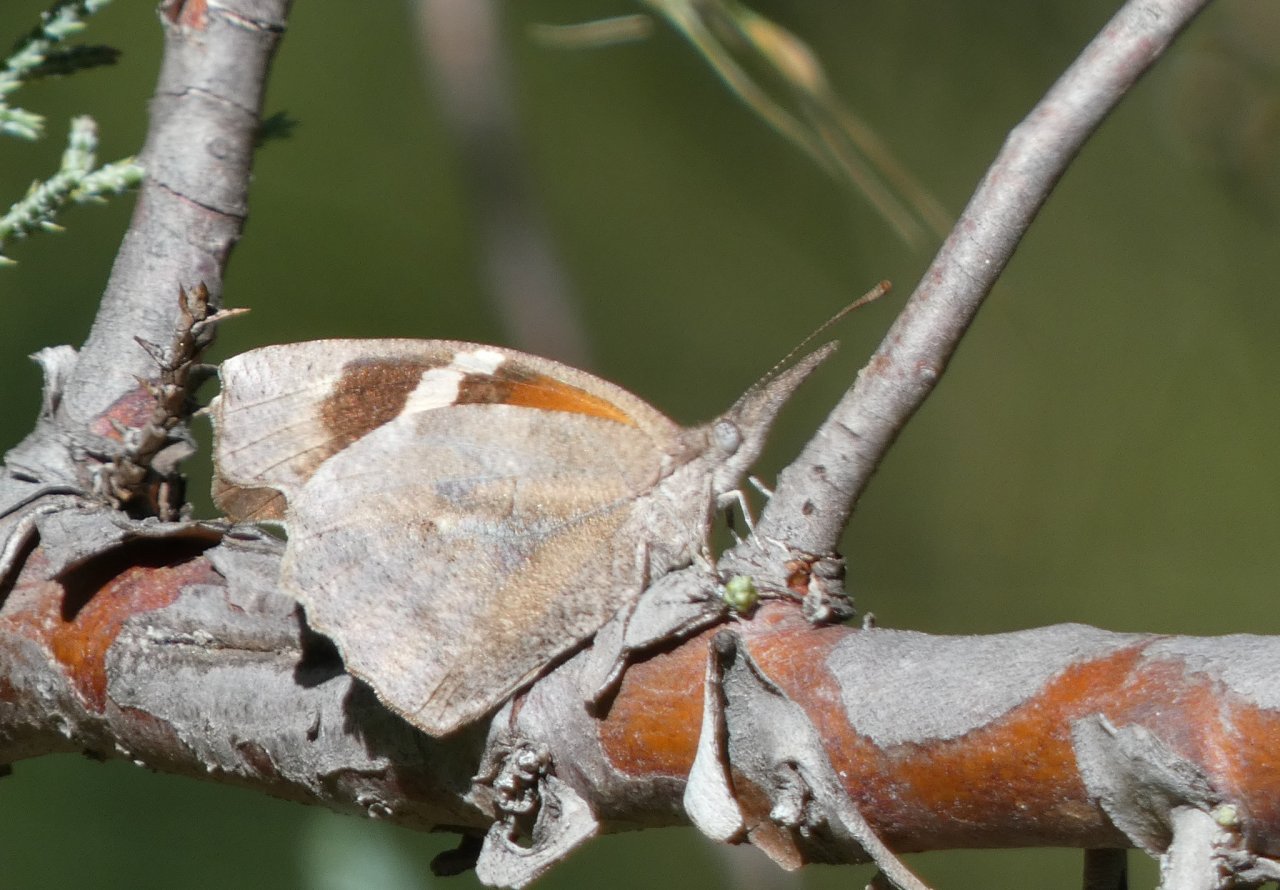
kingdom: Animalia
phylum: Arthropoda
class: Insecta
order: Lepidoptera
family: Nymphalidae
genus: Libytheana
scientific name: Libytheana carinenta
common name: American Snout
